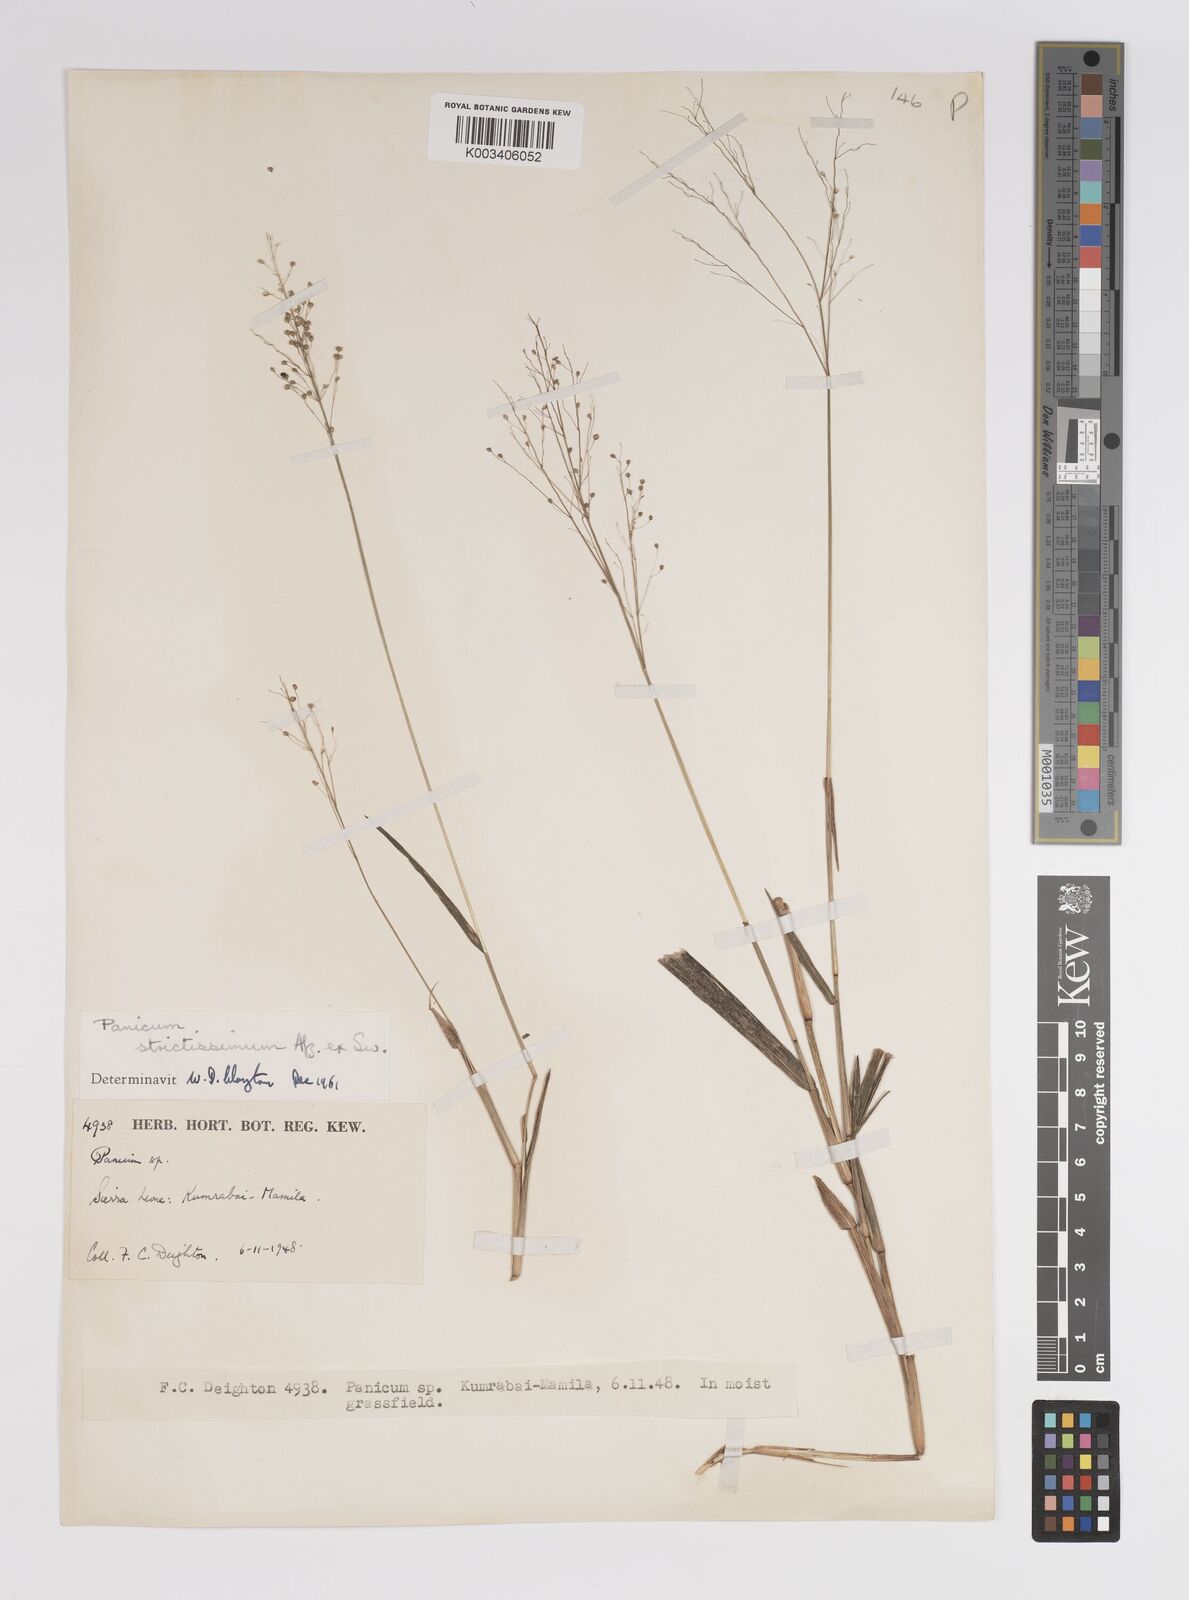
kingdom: Plantae
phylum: Tracheophyta
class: Liliopsida
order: Poales
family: Poaceae
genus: Trichanthecium
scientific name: Trichanthecium strictissimum
